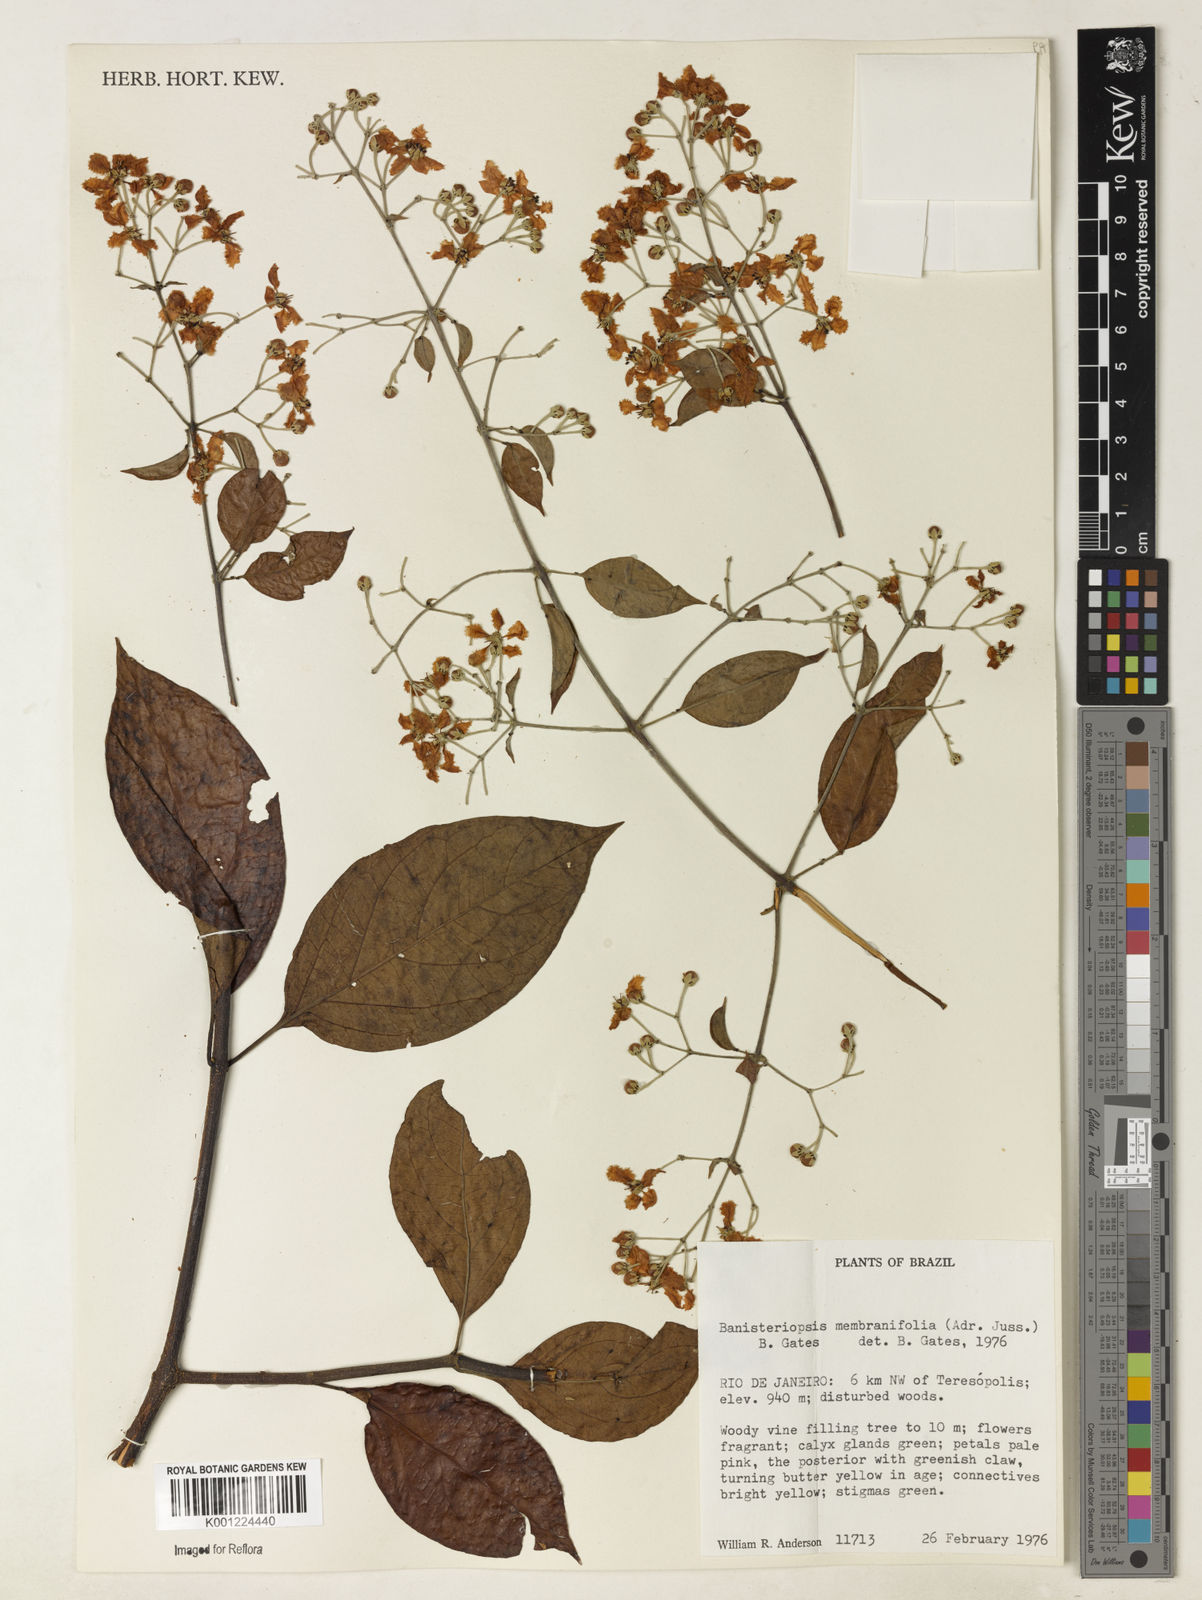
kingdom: Plantae
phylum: Tracheophyta
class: Magnoliopsida
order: Malpighiales
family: Malpighiaceae
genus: Banisteriopsis
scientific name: Banisteriopsis membranifolia
